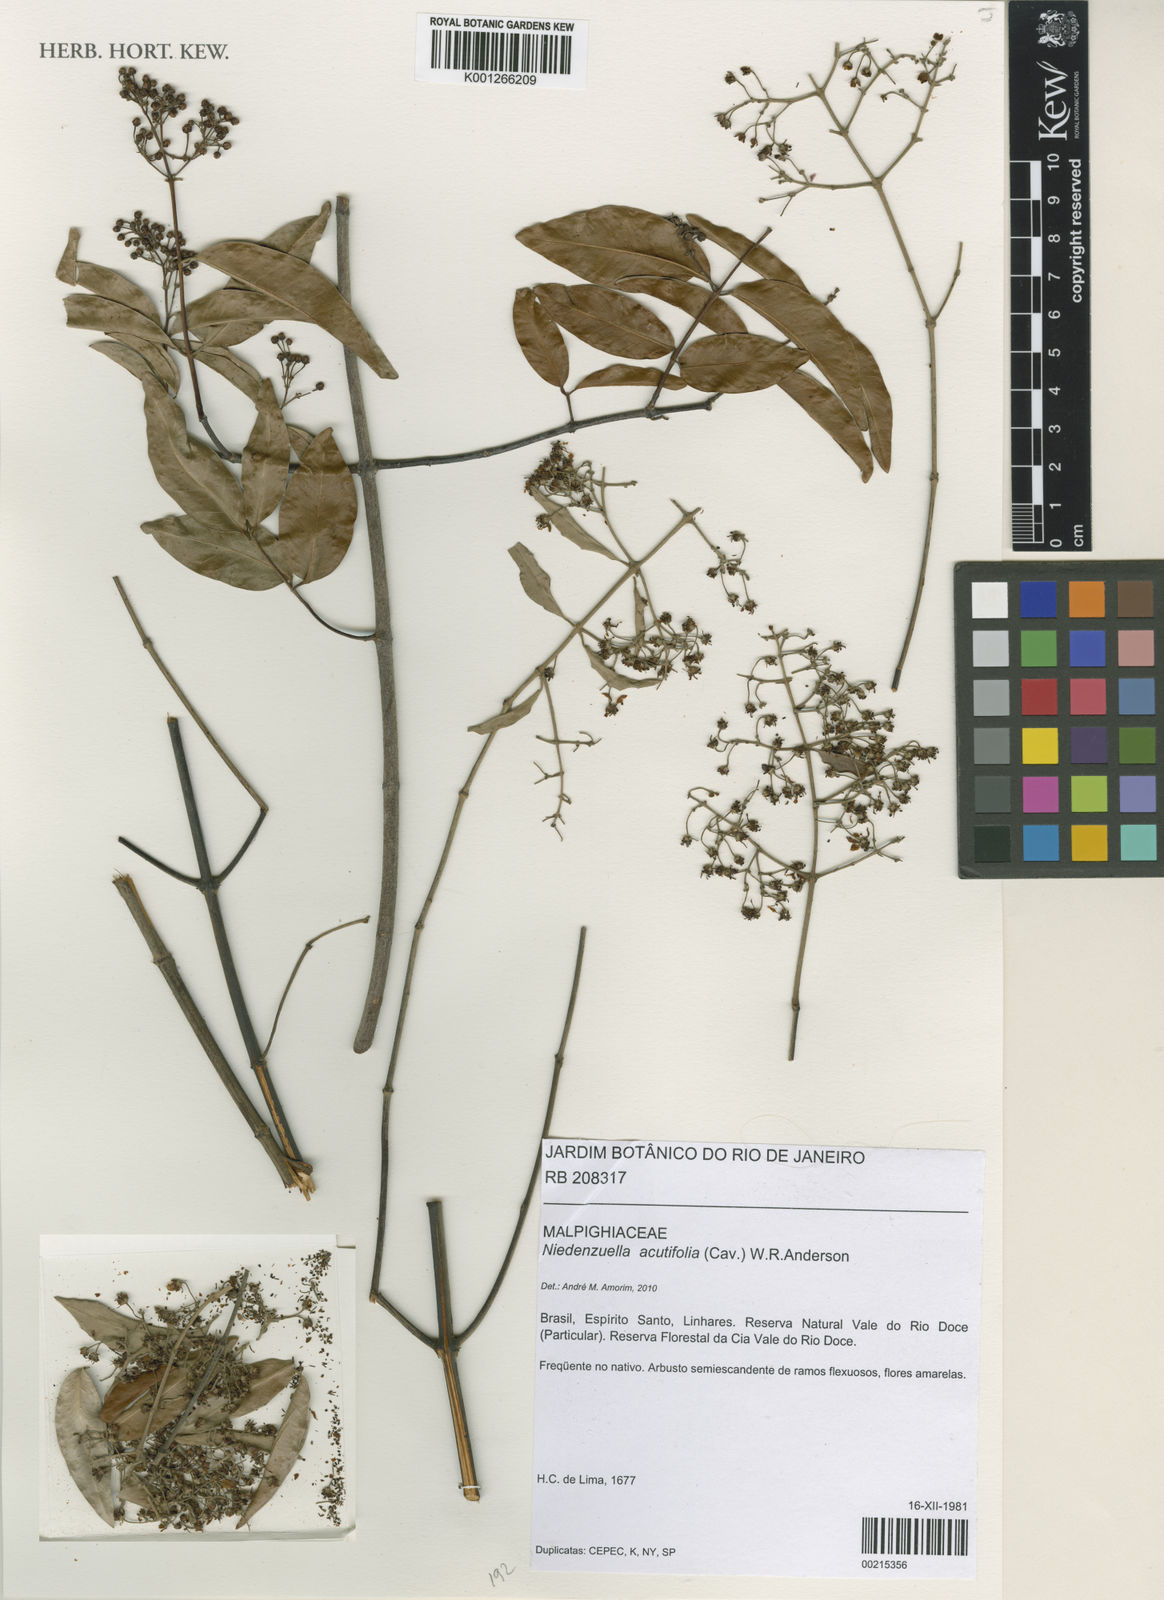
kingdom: Plantae
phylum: Tracheophyta
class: Magnoliopsida
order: Malpighiales
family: Malpighiaceae
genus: Niedenzuella
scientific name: Niedenzuella acutifolia
